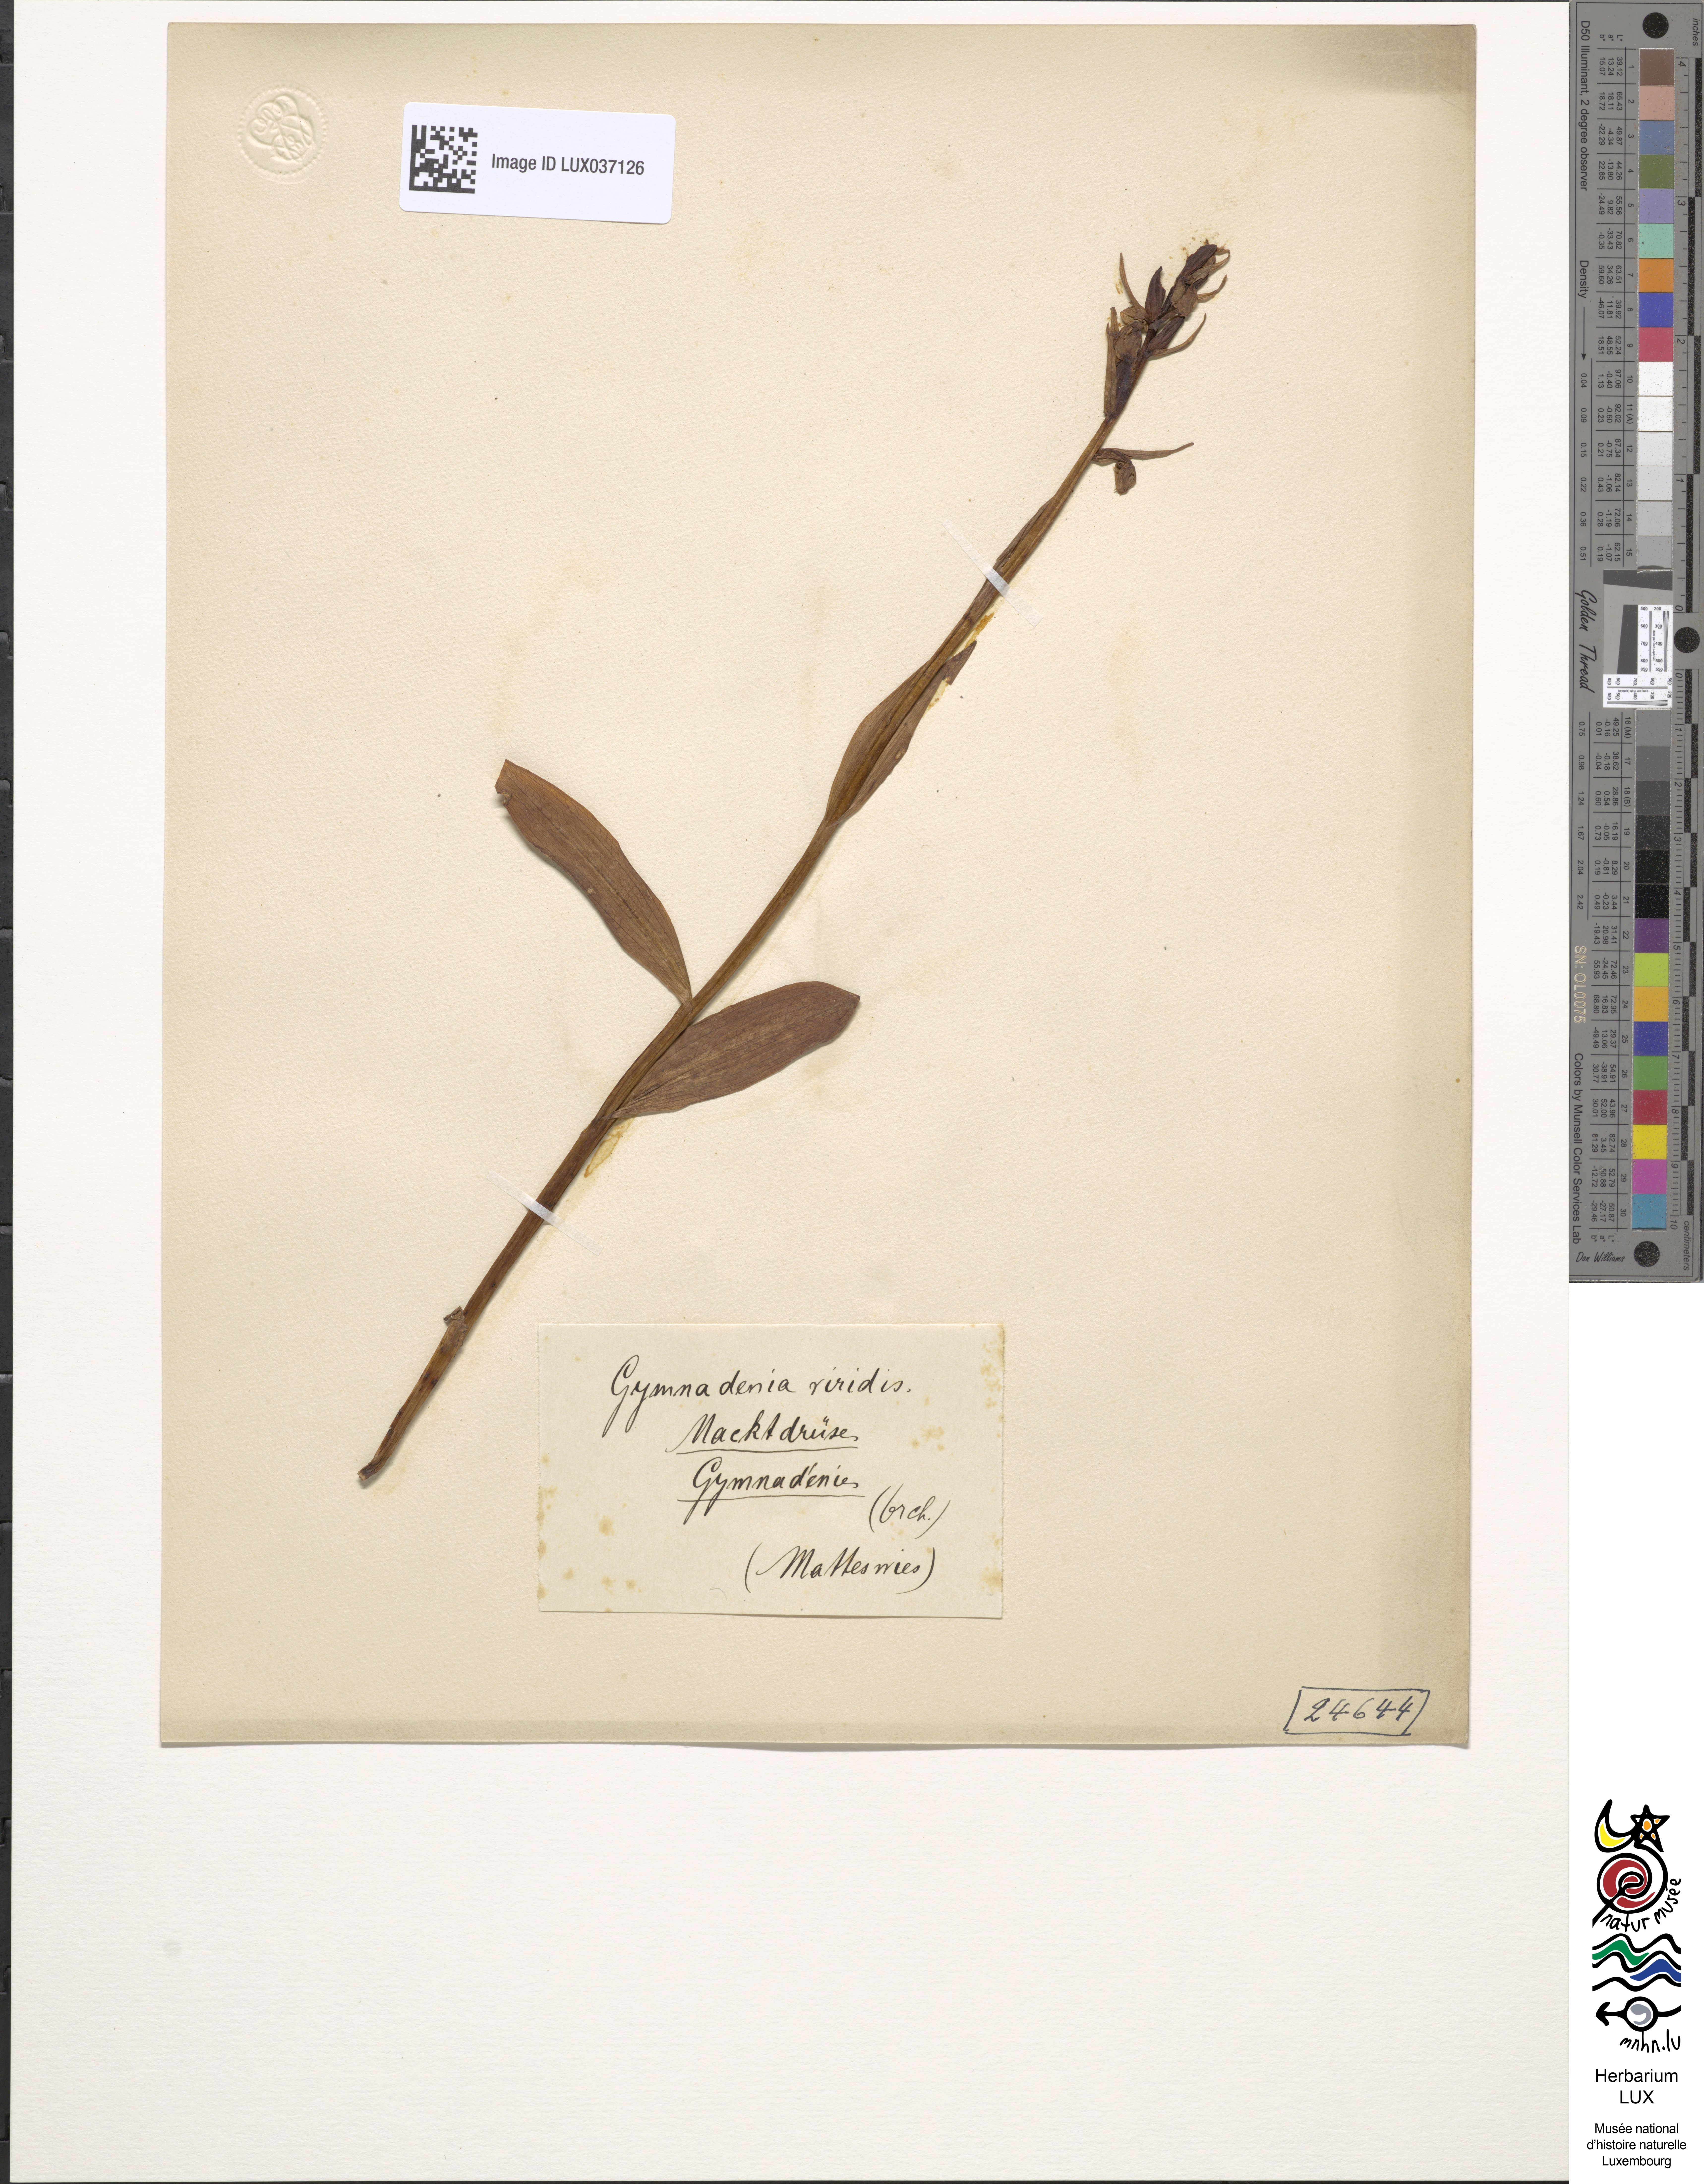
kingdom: Plantae
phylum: Tracheophyta
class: Liliopsida
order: Asparagales
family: Orchidaceae
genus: Dactylorhiza
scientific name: Dactylorhiza viridis
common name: Longbract frog orchid
